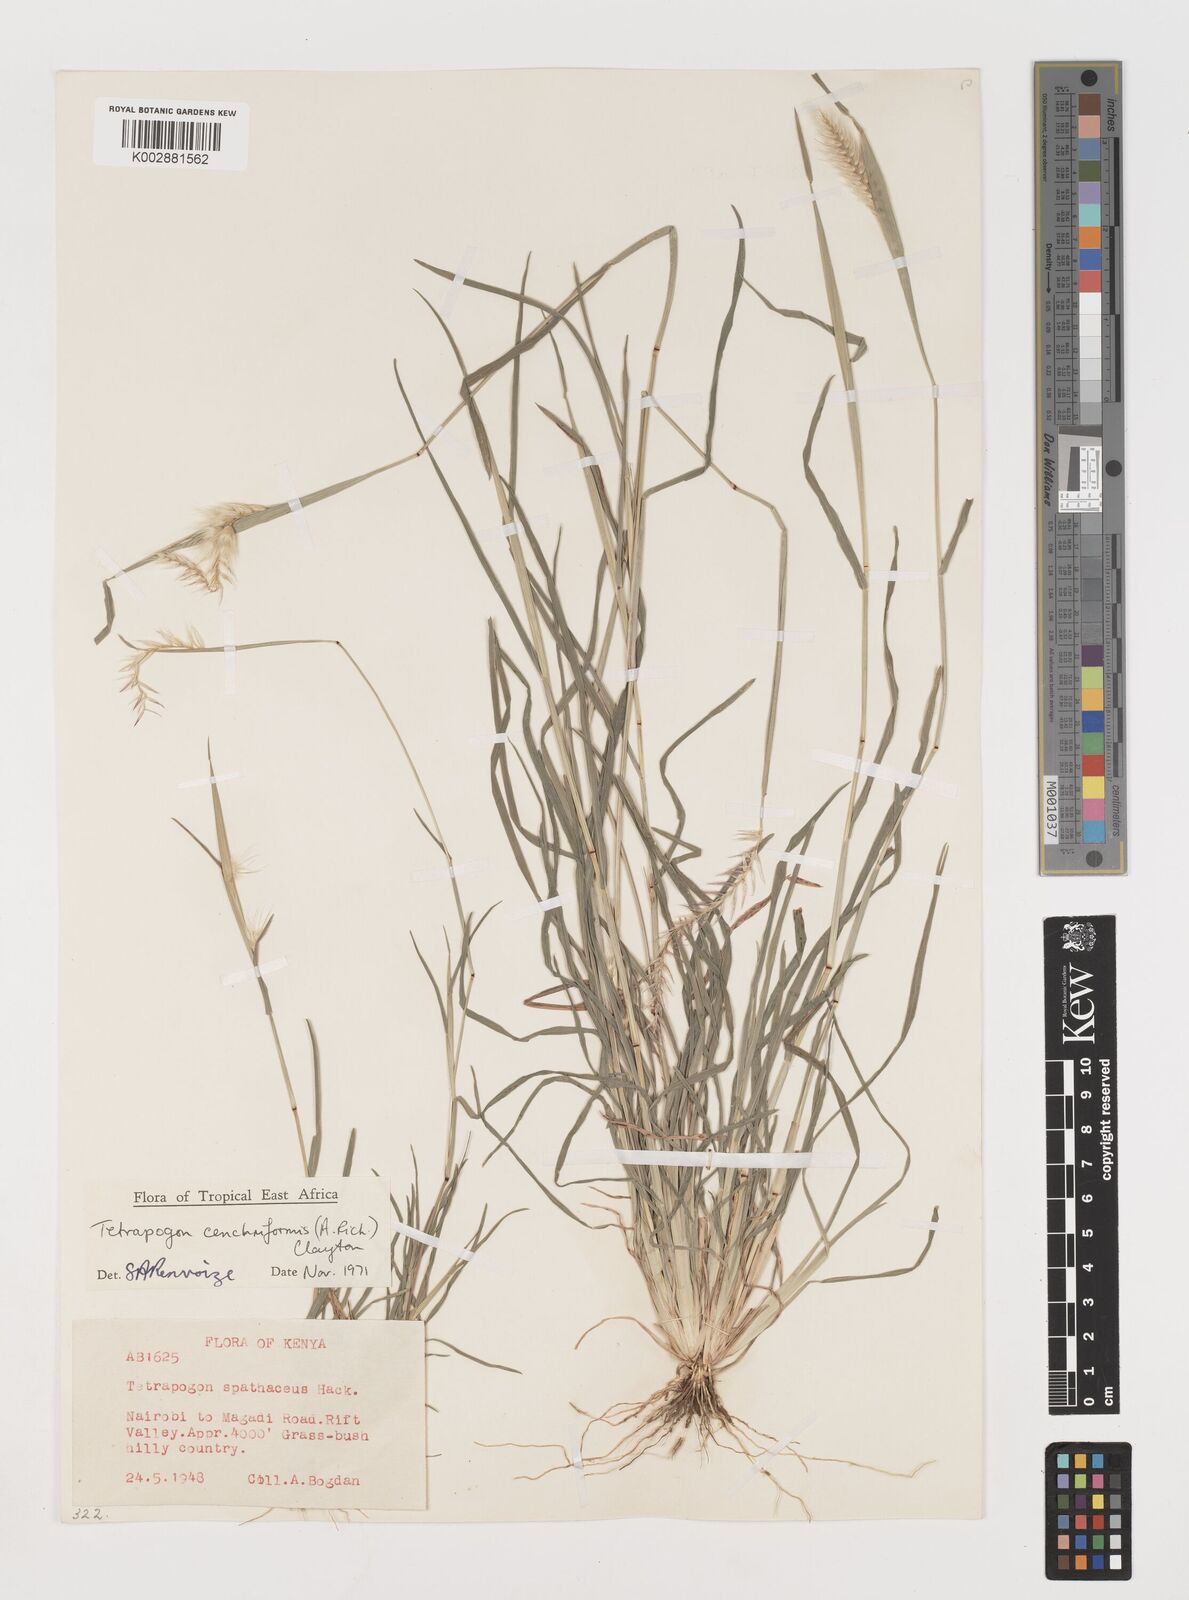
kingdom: Plantae
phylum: Tracheophyta
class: Liliopsida
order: Poales
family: Poaceae
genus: Tetrapogon
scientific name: Tetrapogon cenchriformis
